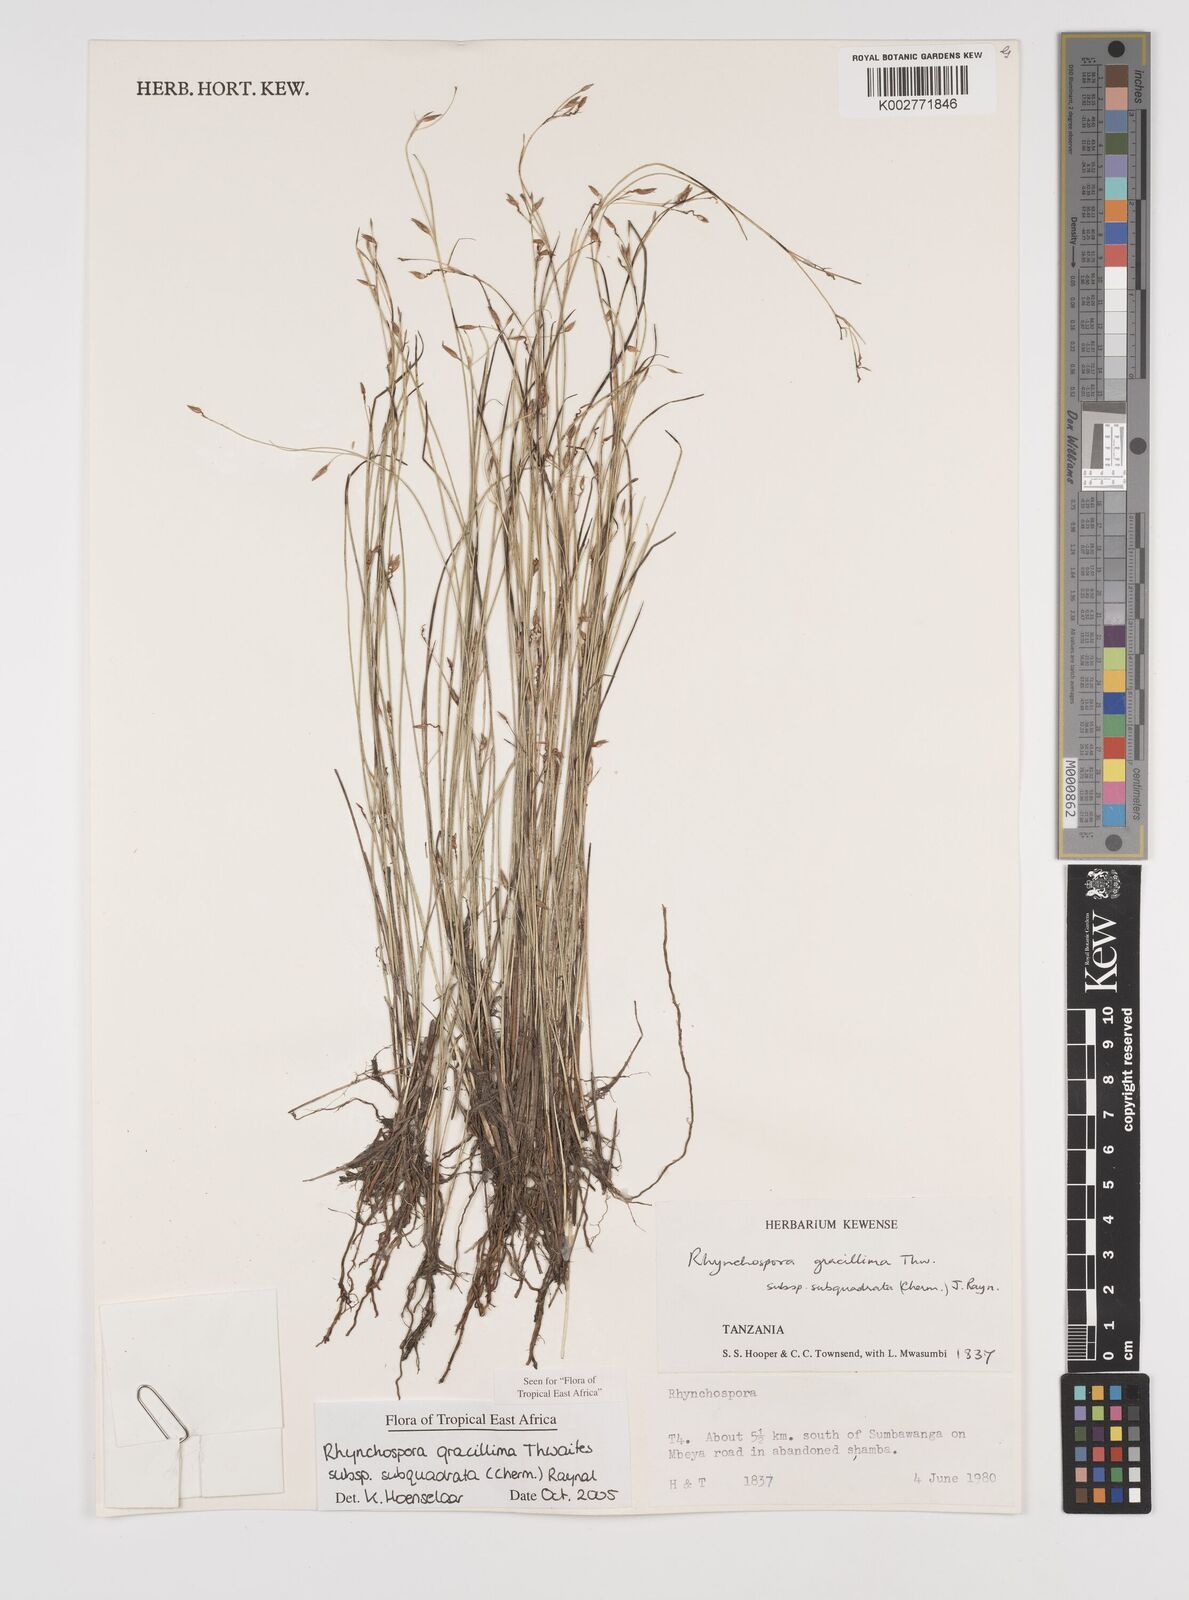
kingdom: Plantae
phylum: Tracheophyta
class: Liliopsida
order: Poales
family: Cyperaceae
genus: Rhynchospora
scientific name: Rhynchospora gracillima
